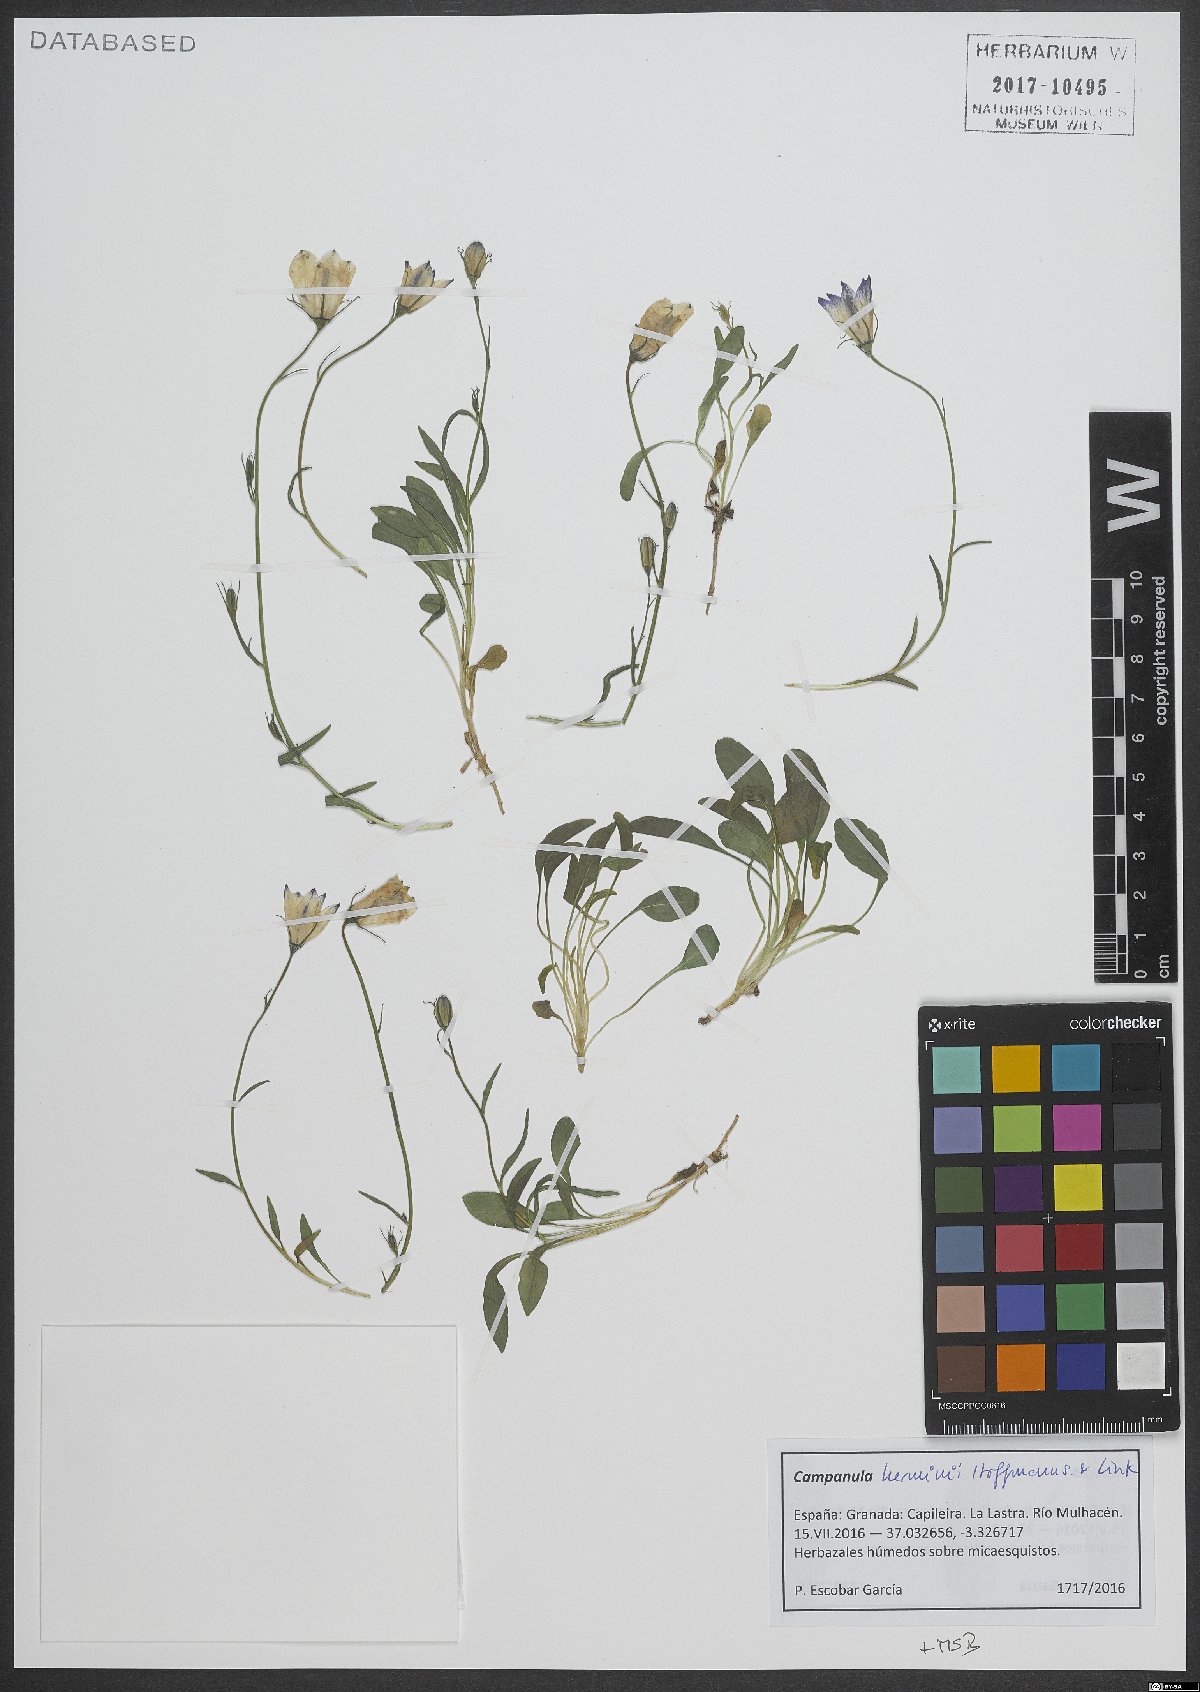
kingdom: Plantae
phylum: Tracheophyta
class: Magnoliopsida
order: Asterales
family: Campanulaceae
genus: Campanula
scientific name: Campanula herminii
